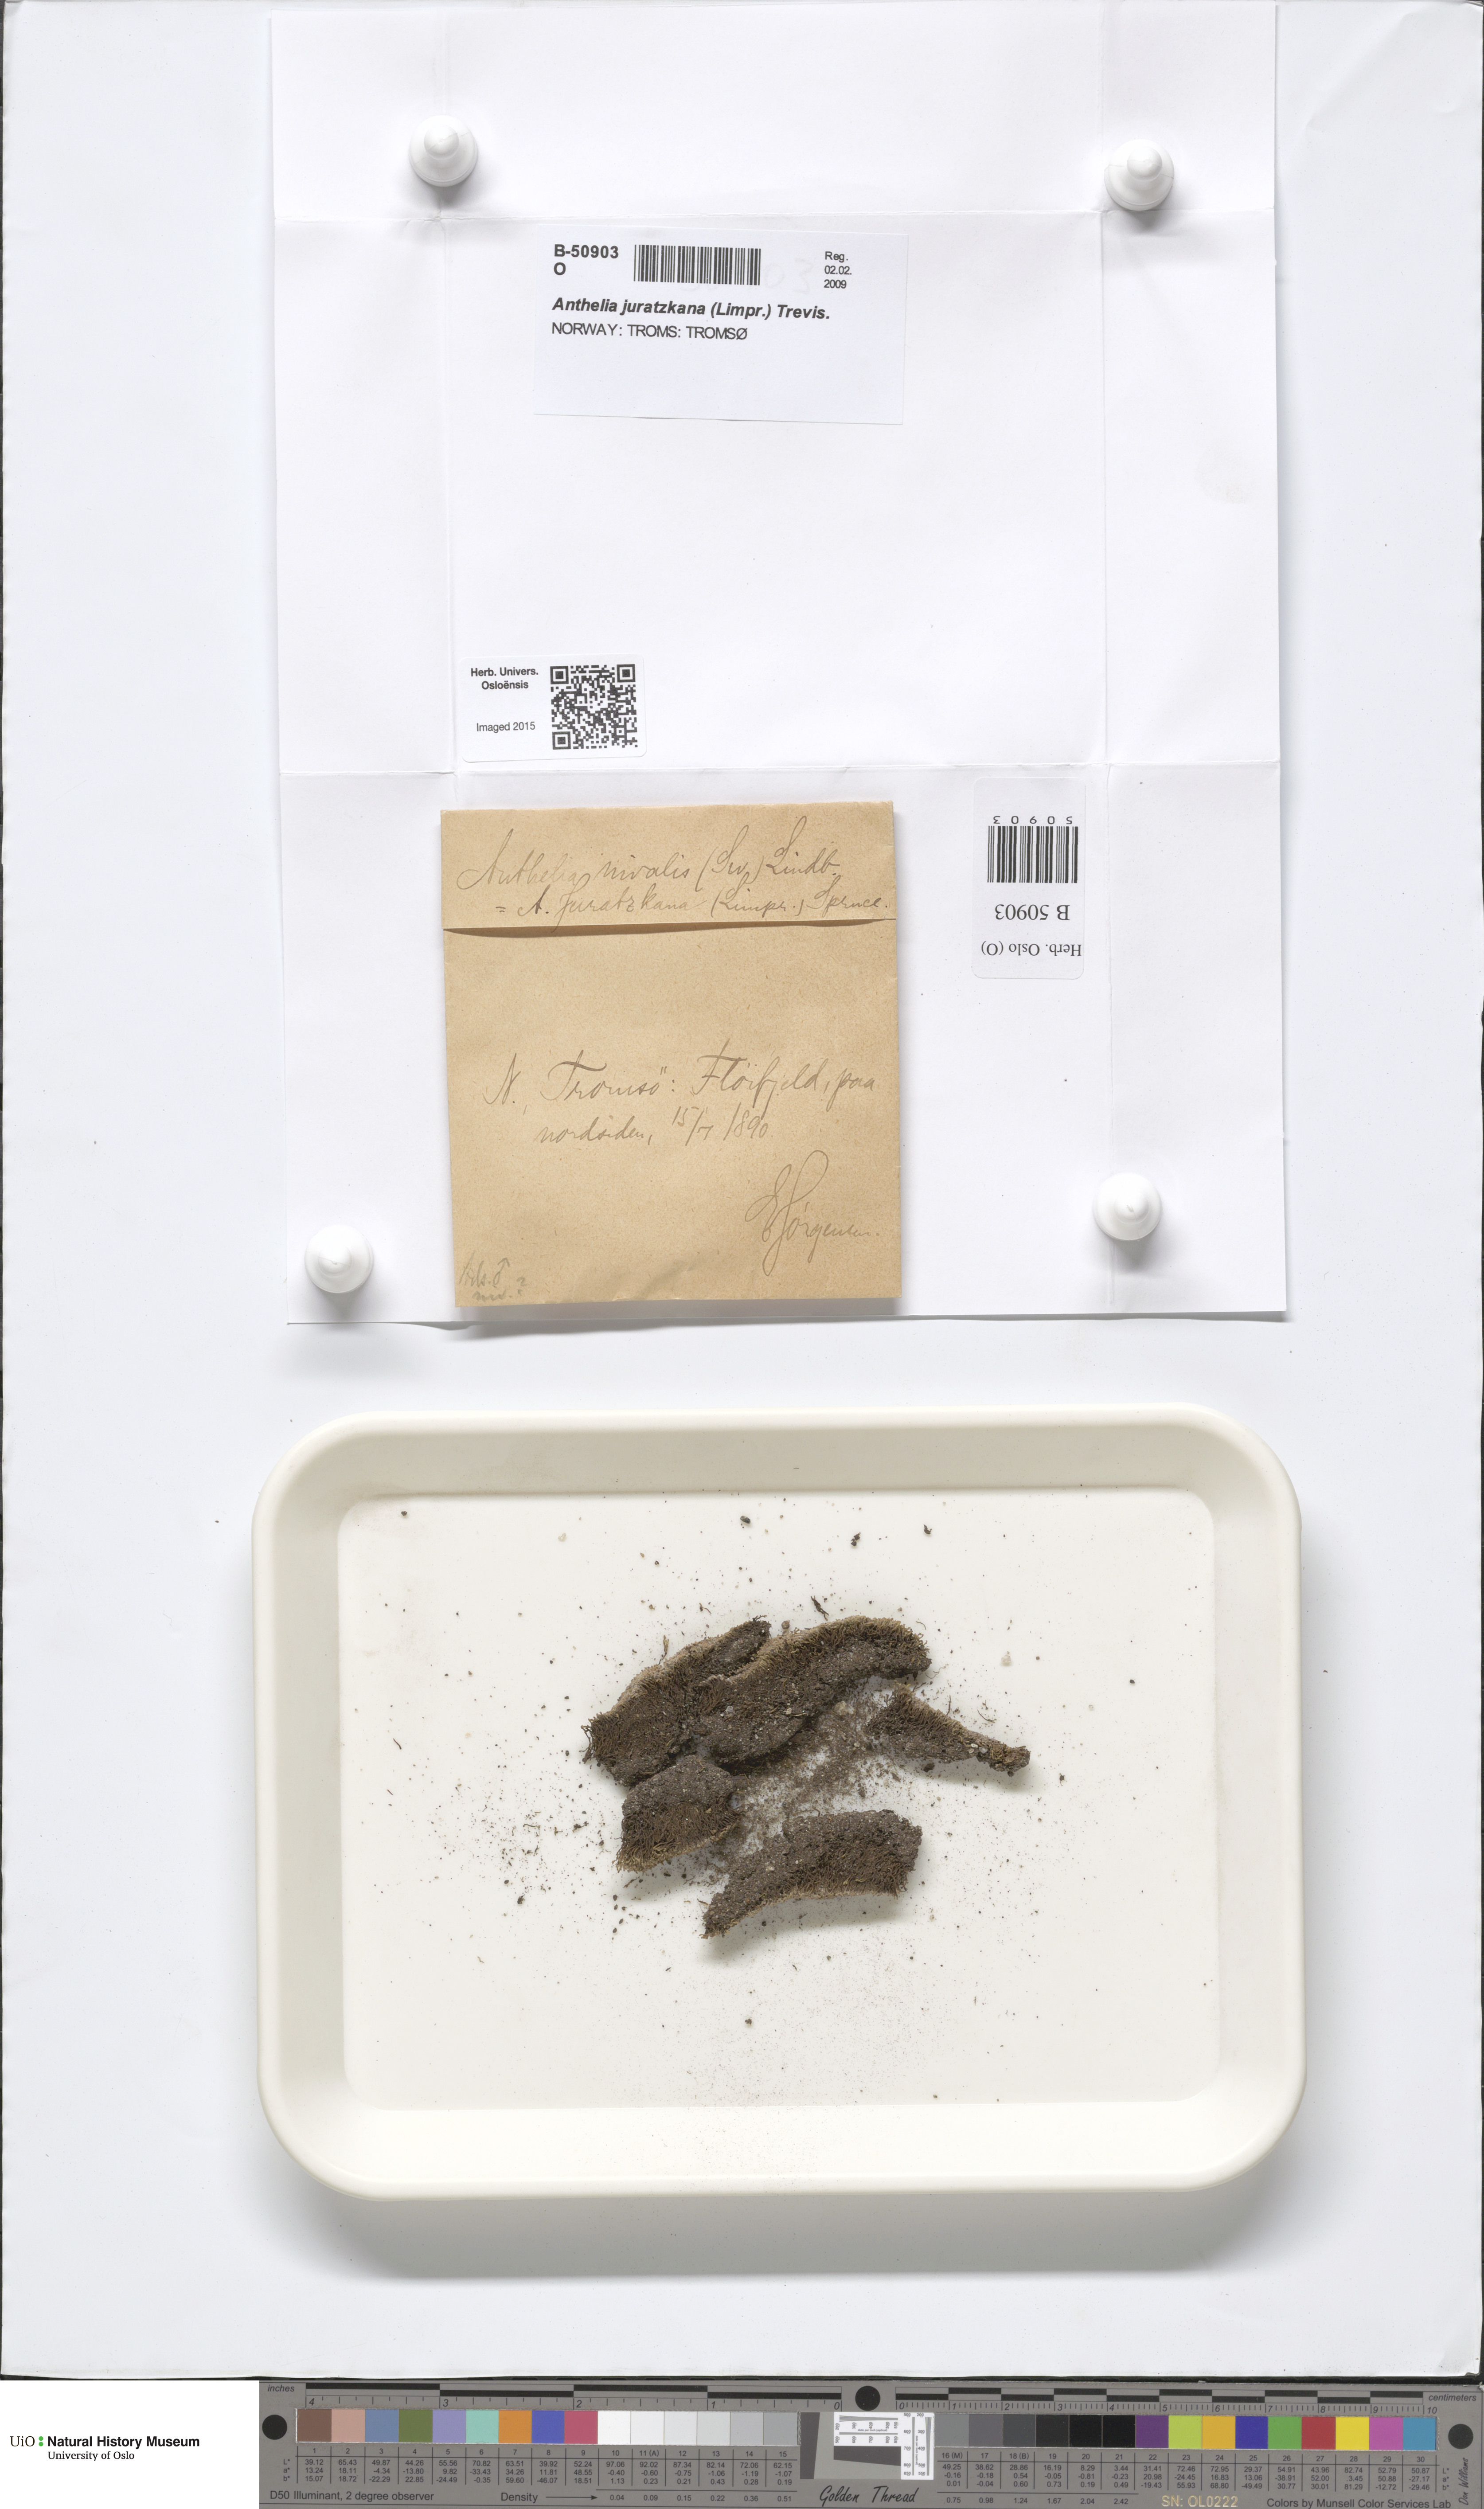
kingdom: Plantae
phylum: Marchantiophyta
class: Jungermanniopsida
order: Jungermanniales
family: Antheliaceae
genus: Anthelia
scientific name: Anthelia juratzkana
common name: Juratzka s silverwort
